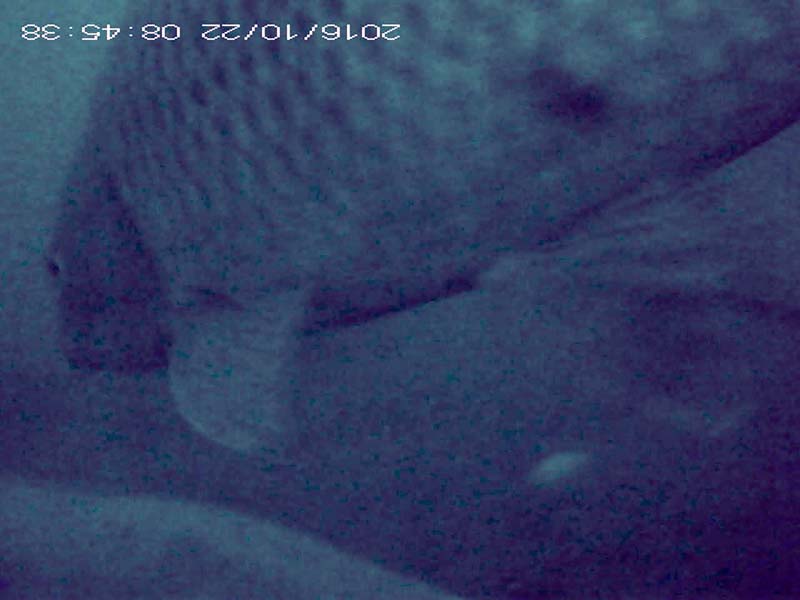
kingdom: Animalia
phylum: Chordata
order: Cypriniformes
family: Cyprinidae
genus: Cyprinus
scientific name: Cyprinus carpio
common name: コイ
